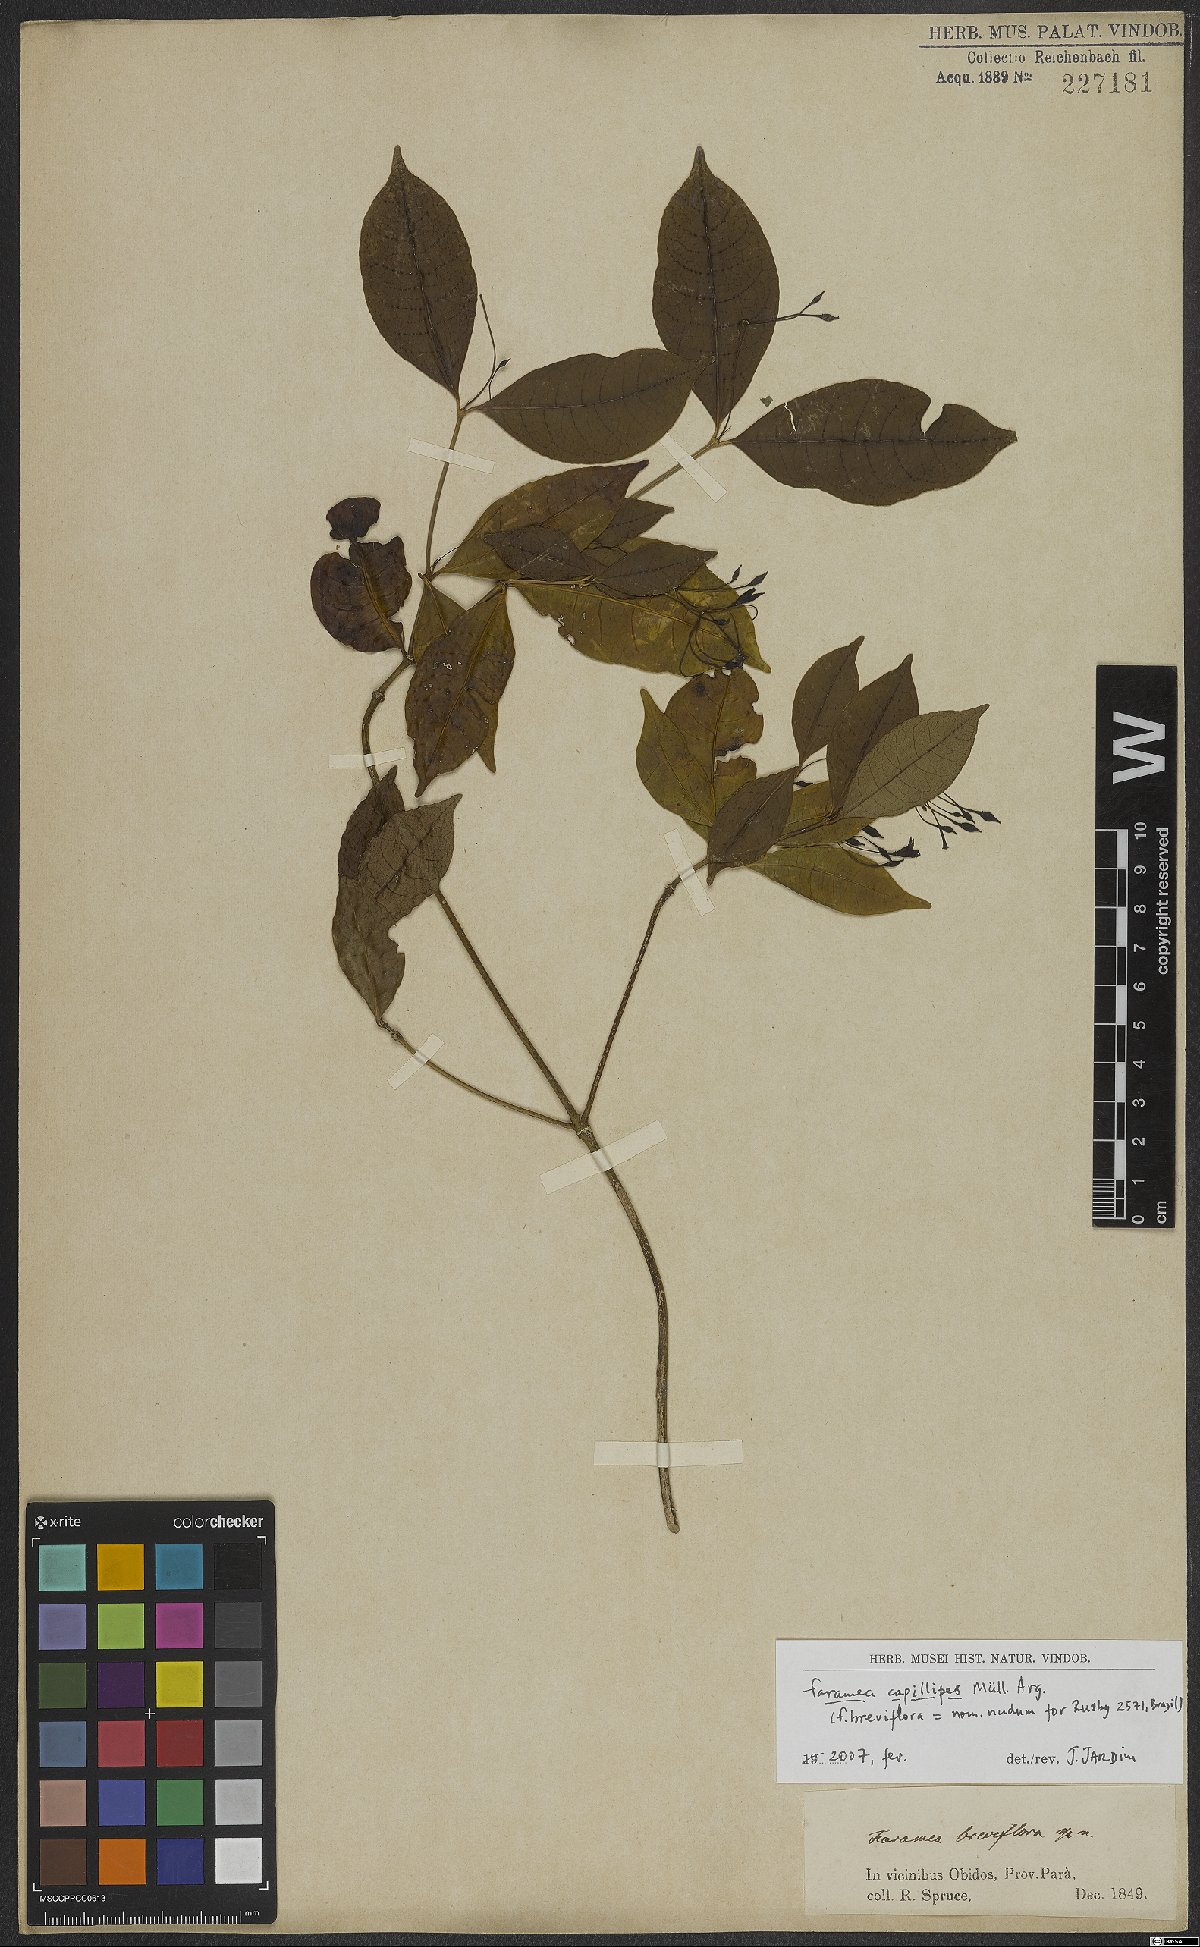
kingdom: Plantae
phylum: Tracheophyta
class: Magnoliopsida
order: Gentianales
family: Rubiaceae
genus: Faramea
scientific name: Faramea capillipes
